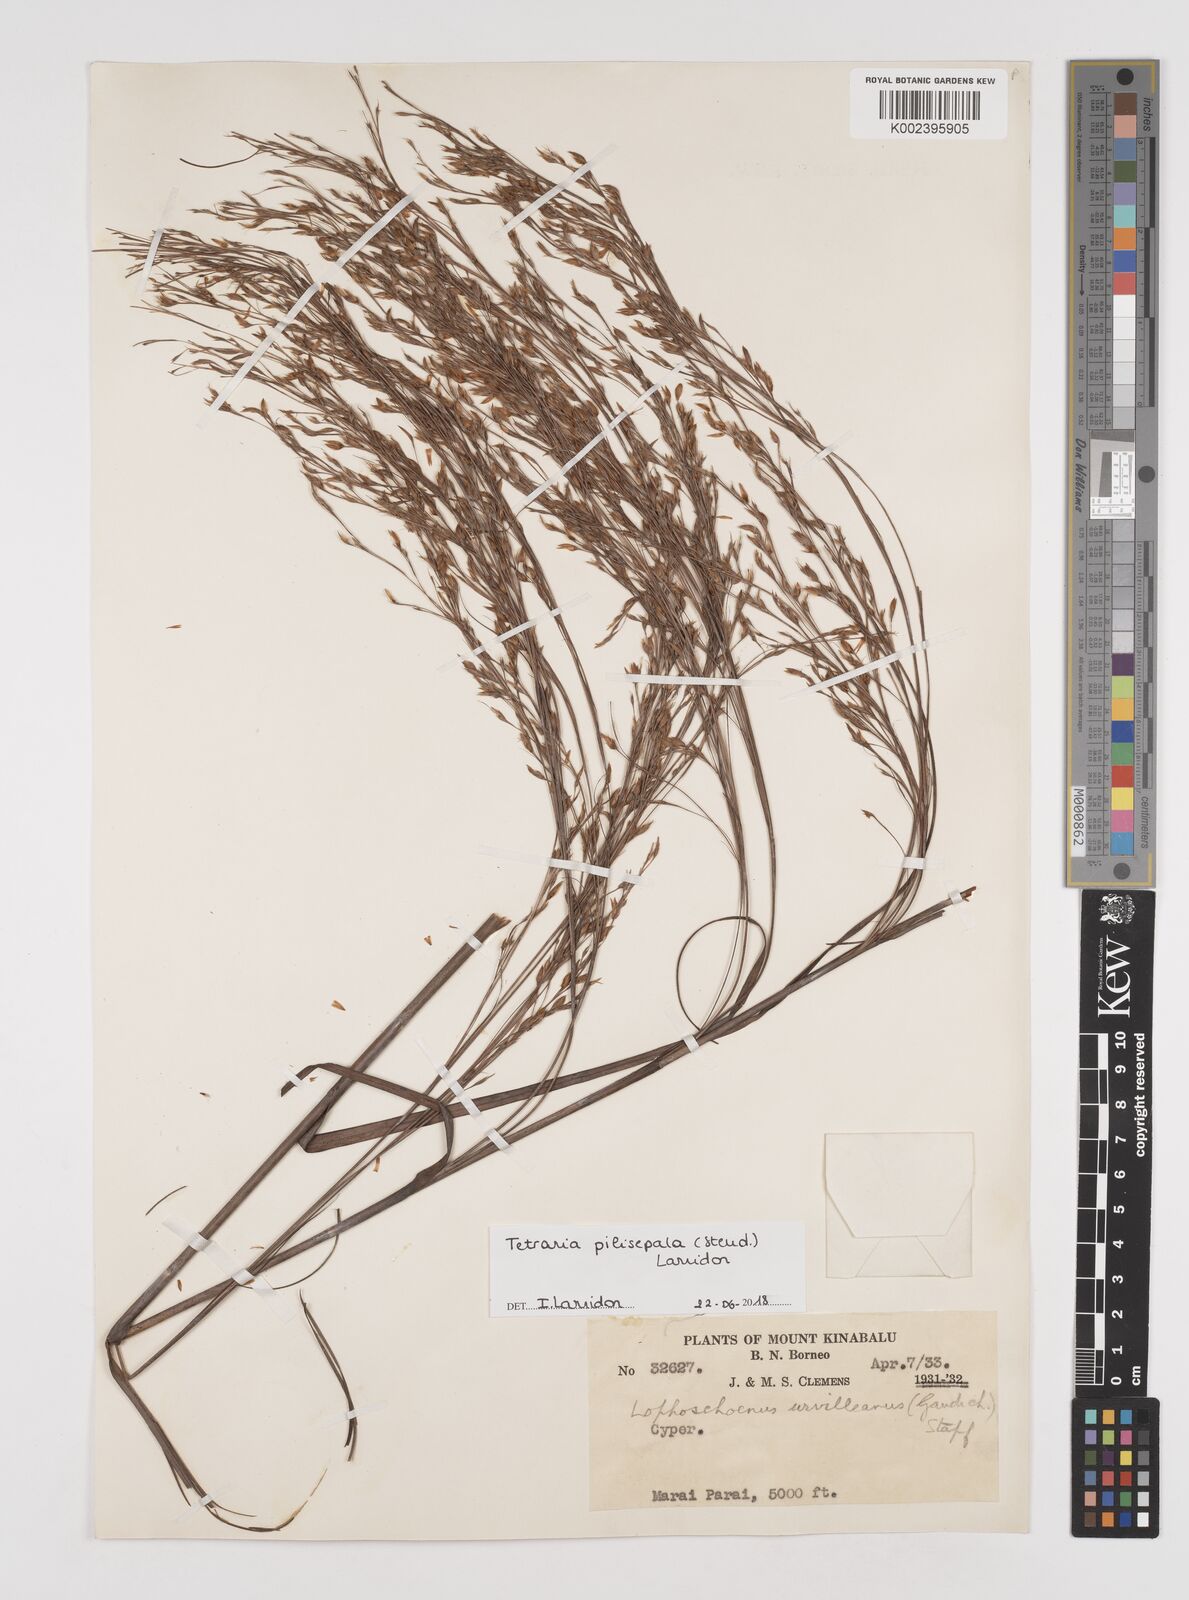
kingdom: Plantae
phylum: Tracheophyta
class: Liliopsida
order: Poales
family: Cyperaceae
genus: Tetraria
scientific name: Tetraria pilisepala
